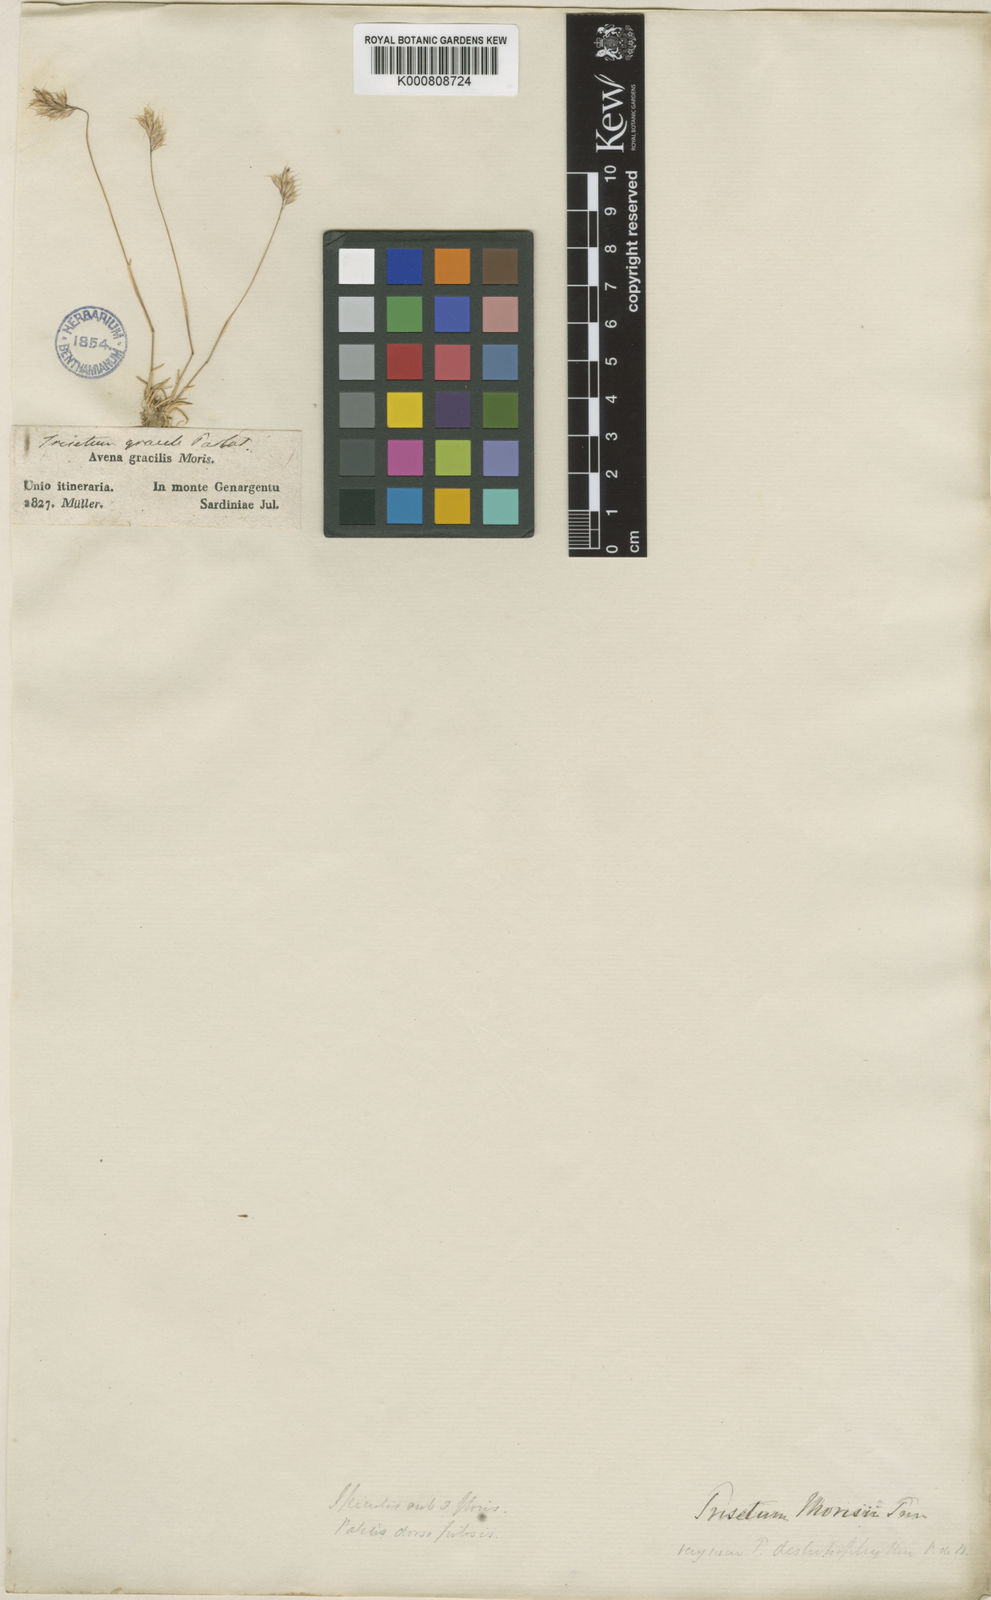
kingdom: Plantae
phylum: Tracheophyta
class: Liliopsida
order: Poales
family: Poaceae
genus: Acrospelion
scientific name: Acrospelion glaciale
